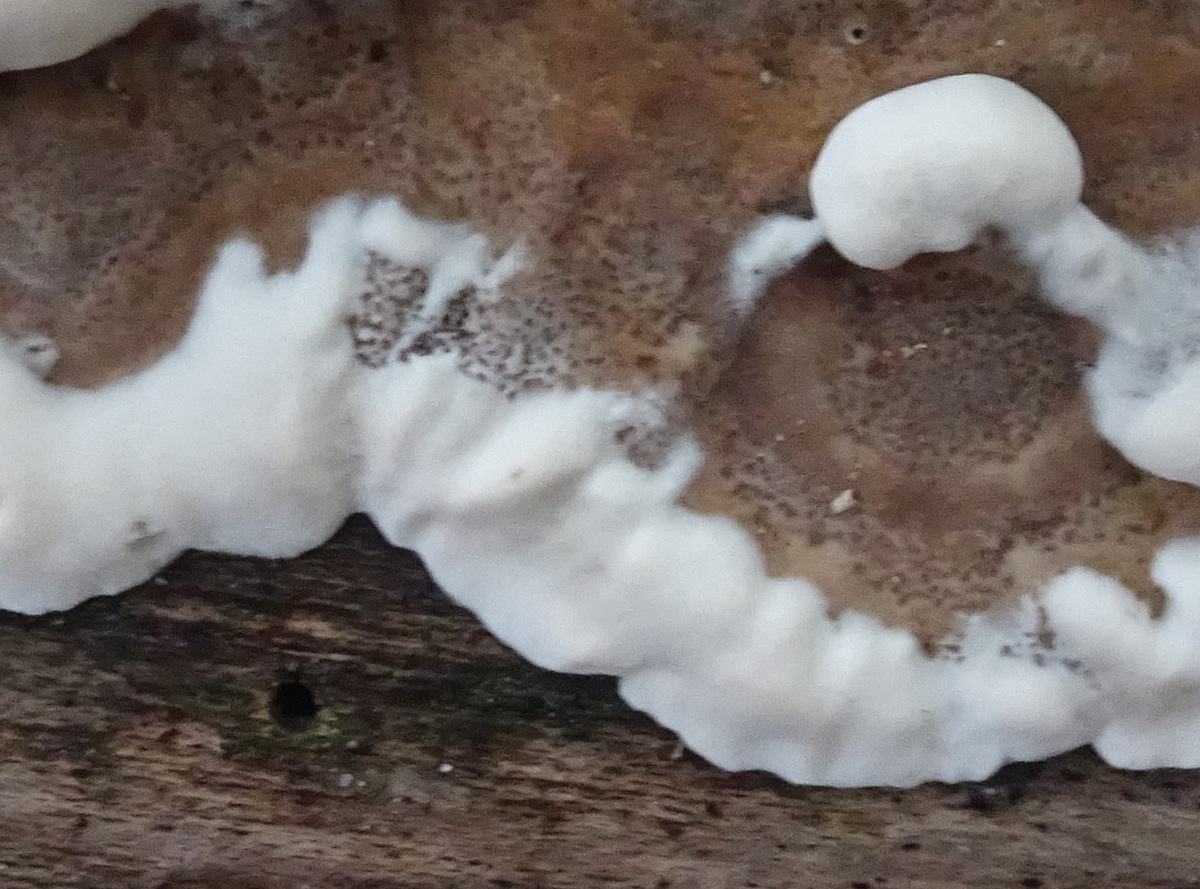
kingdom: Fungi
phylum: Basidiomycota
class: Agaricomycetes
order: Polyporales
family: Phanerochaetaceae
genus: Bjerkandera
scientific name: Bjerkandera adusta
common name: sveden sodporesvamp
